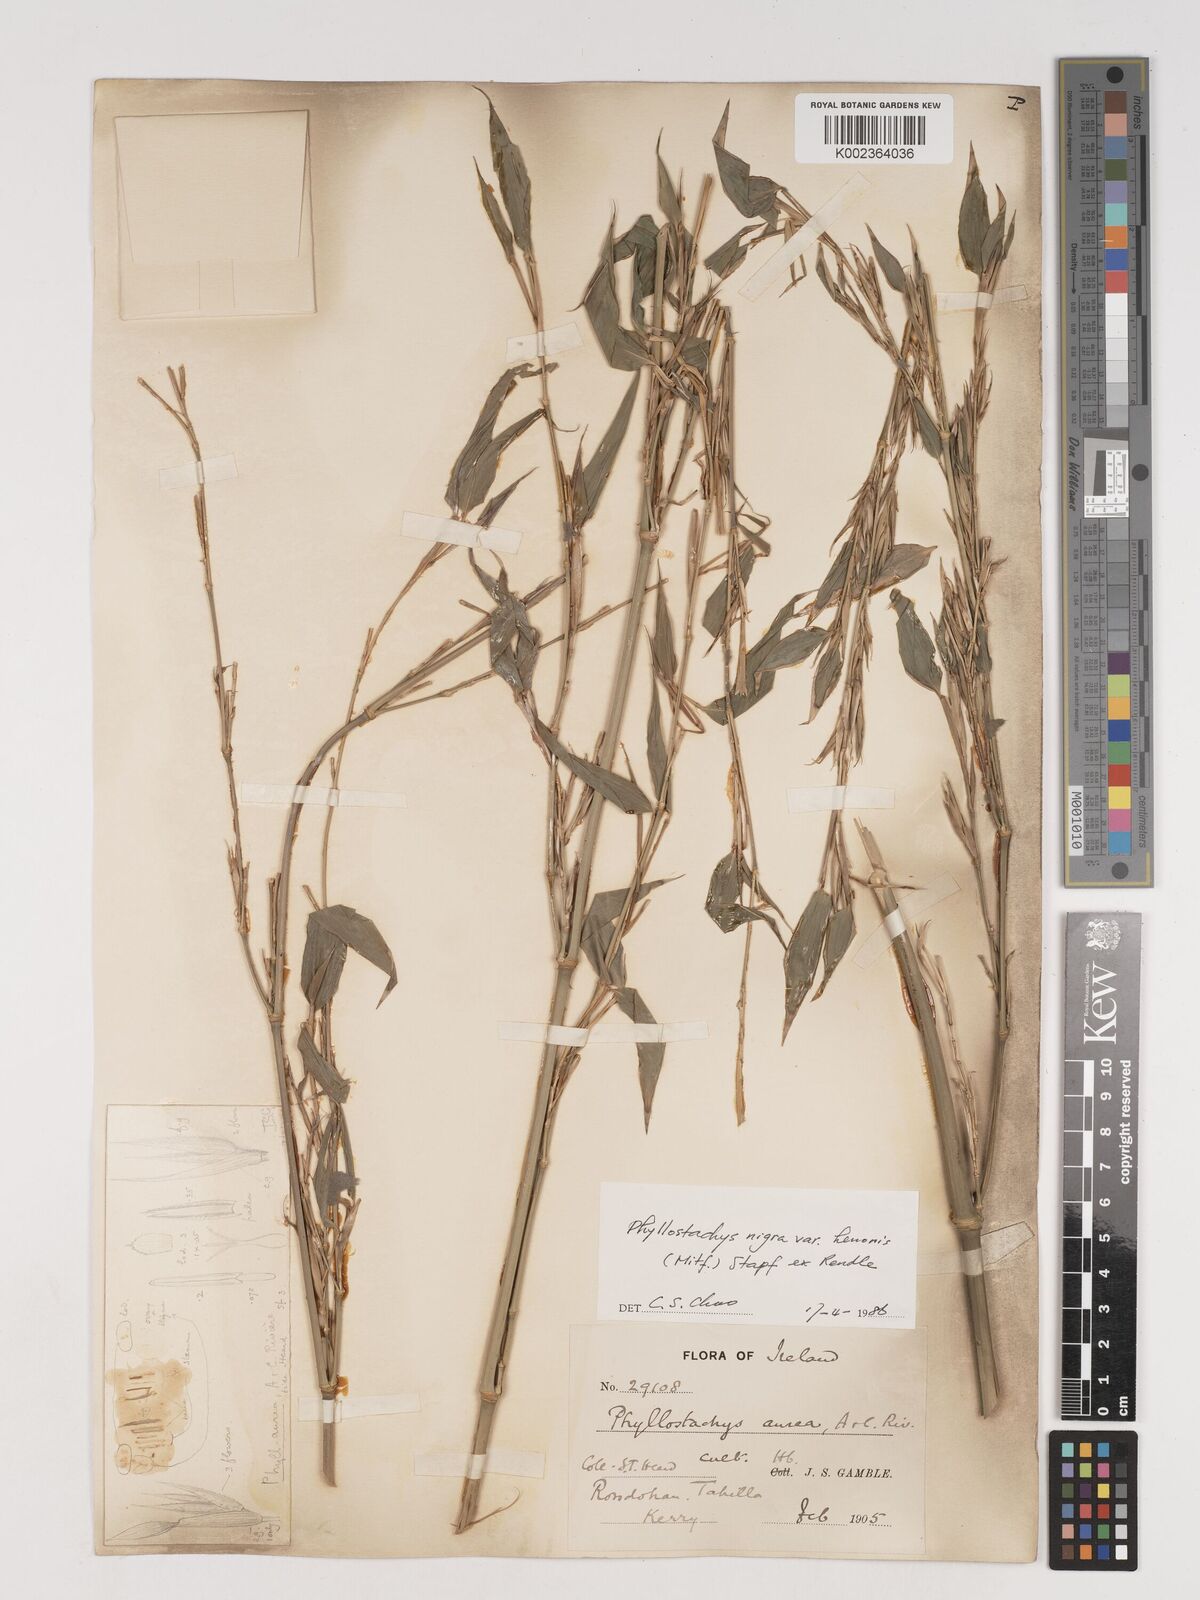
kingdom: Plantae
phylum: Tracheophyta
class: Liliopsida
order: Poales
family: Poaceae
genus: Phyllostachys
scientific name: Phyllostachys nigra
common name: Black bamboo
